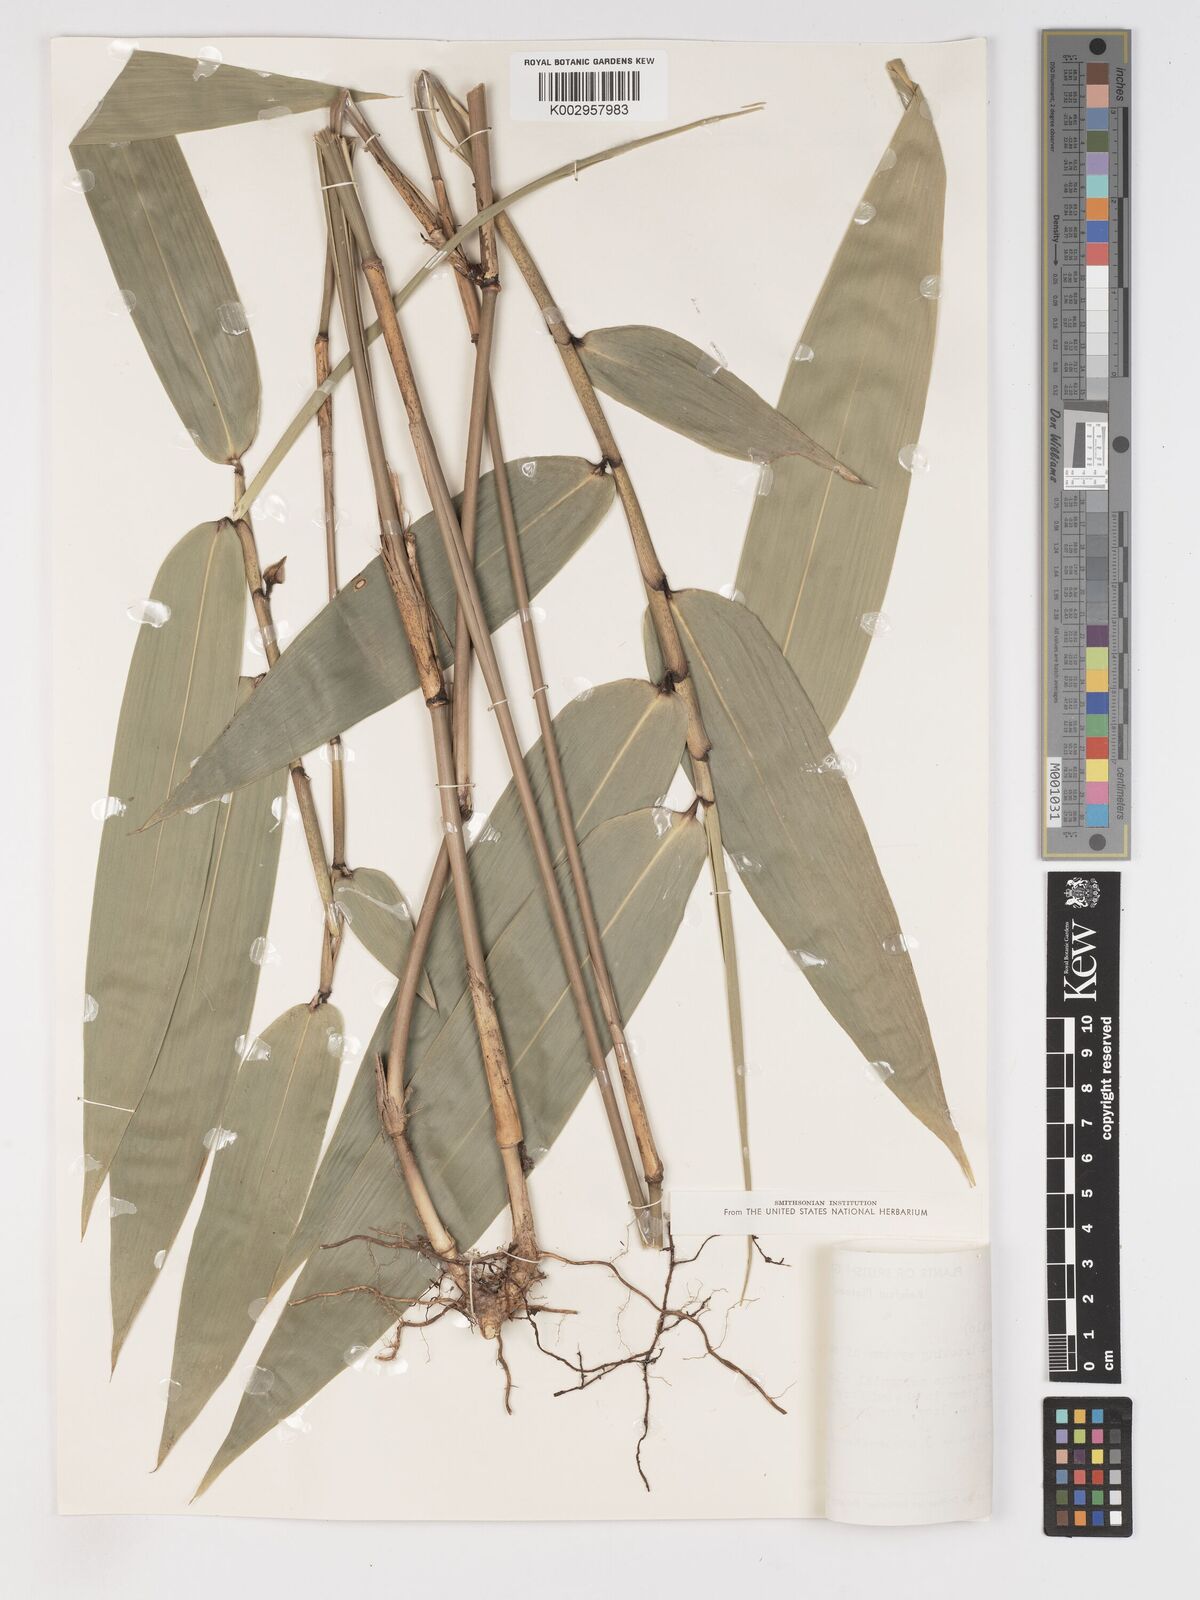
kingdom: Plantae
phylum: Tracheophyta
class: Liliopsida
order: Poales
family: Poaceae
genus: Olyra
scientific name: Olyra longifolia
